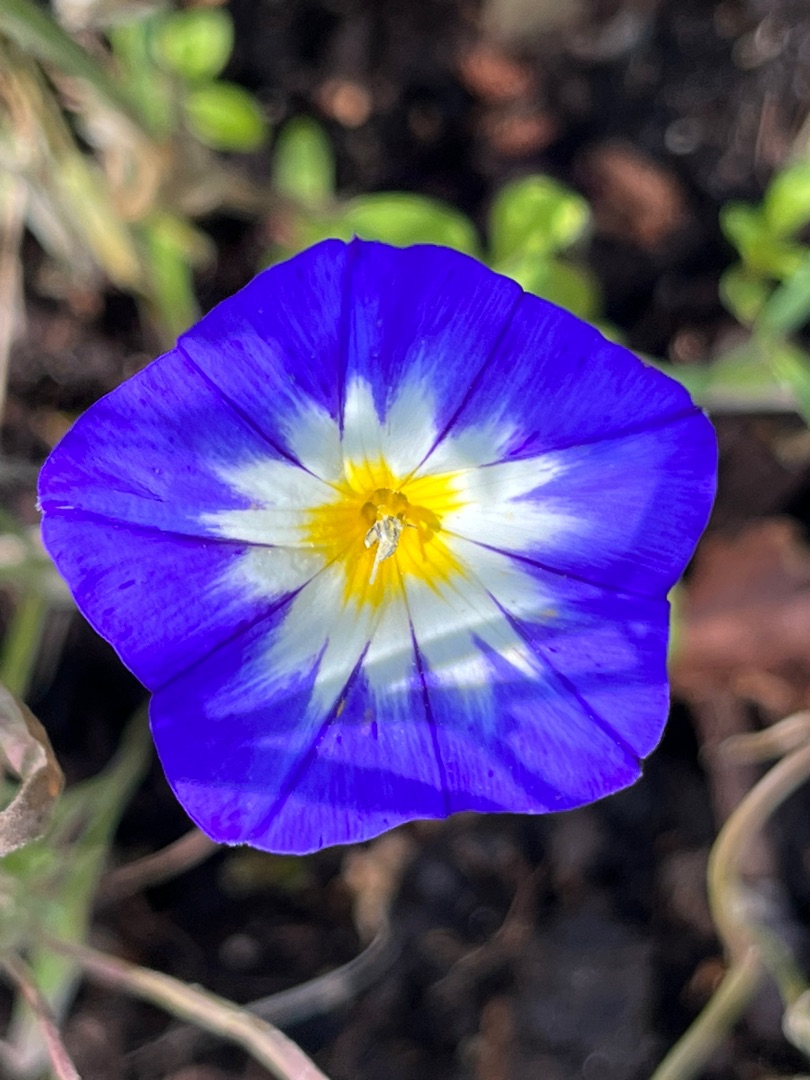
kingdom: Plantae
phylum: Tracheophyta
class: Magnoliopsida
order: Solanales
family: Convolvulaceae
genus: Convolvulus
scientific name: Convolvulus tricolor
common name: Jomfruskørt
